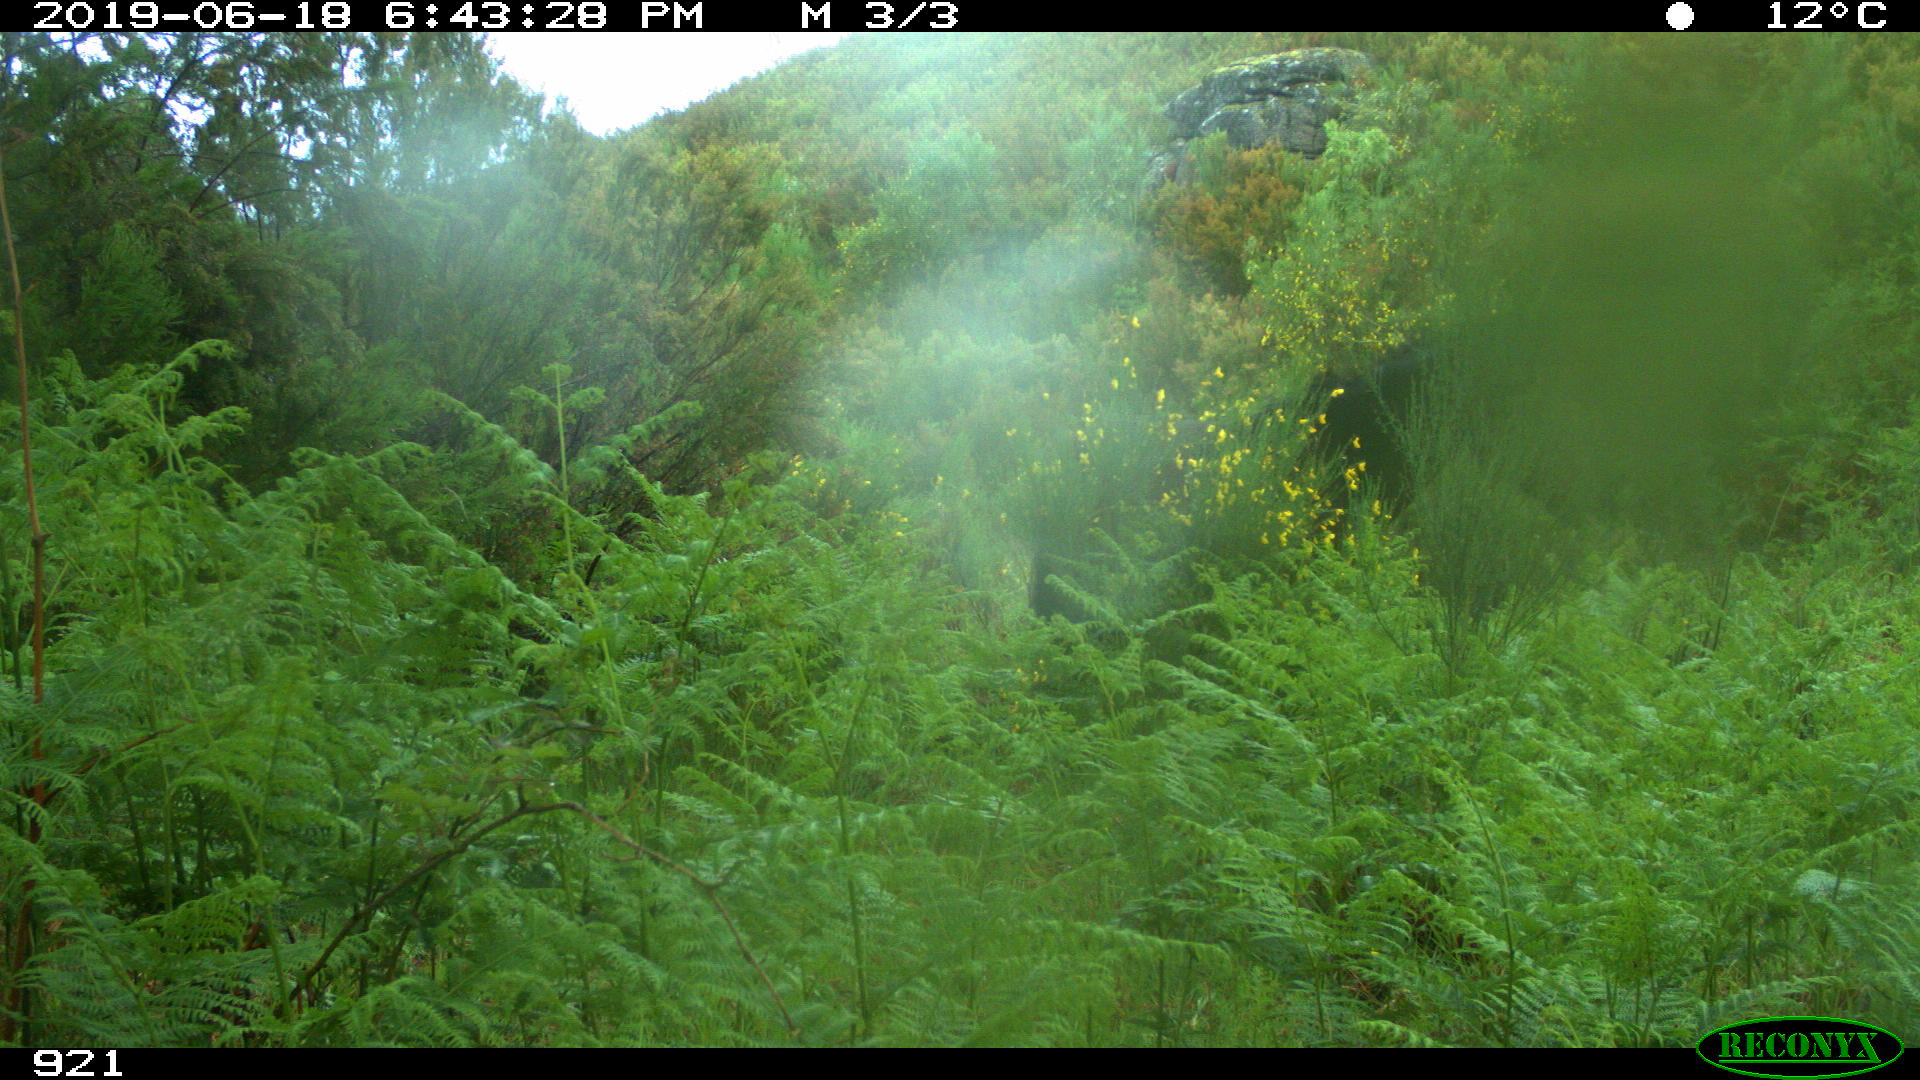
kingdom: Animalia
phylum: Chordata
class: Mammalia
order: Perissodactyla
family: Equidae
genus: Equus
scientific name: Equus caballus
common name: Horse
